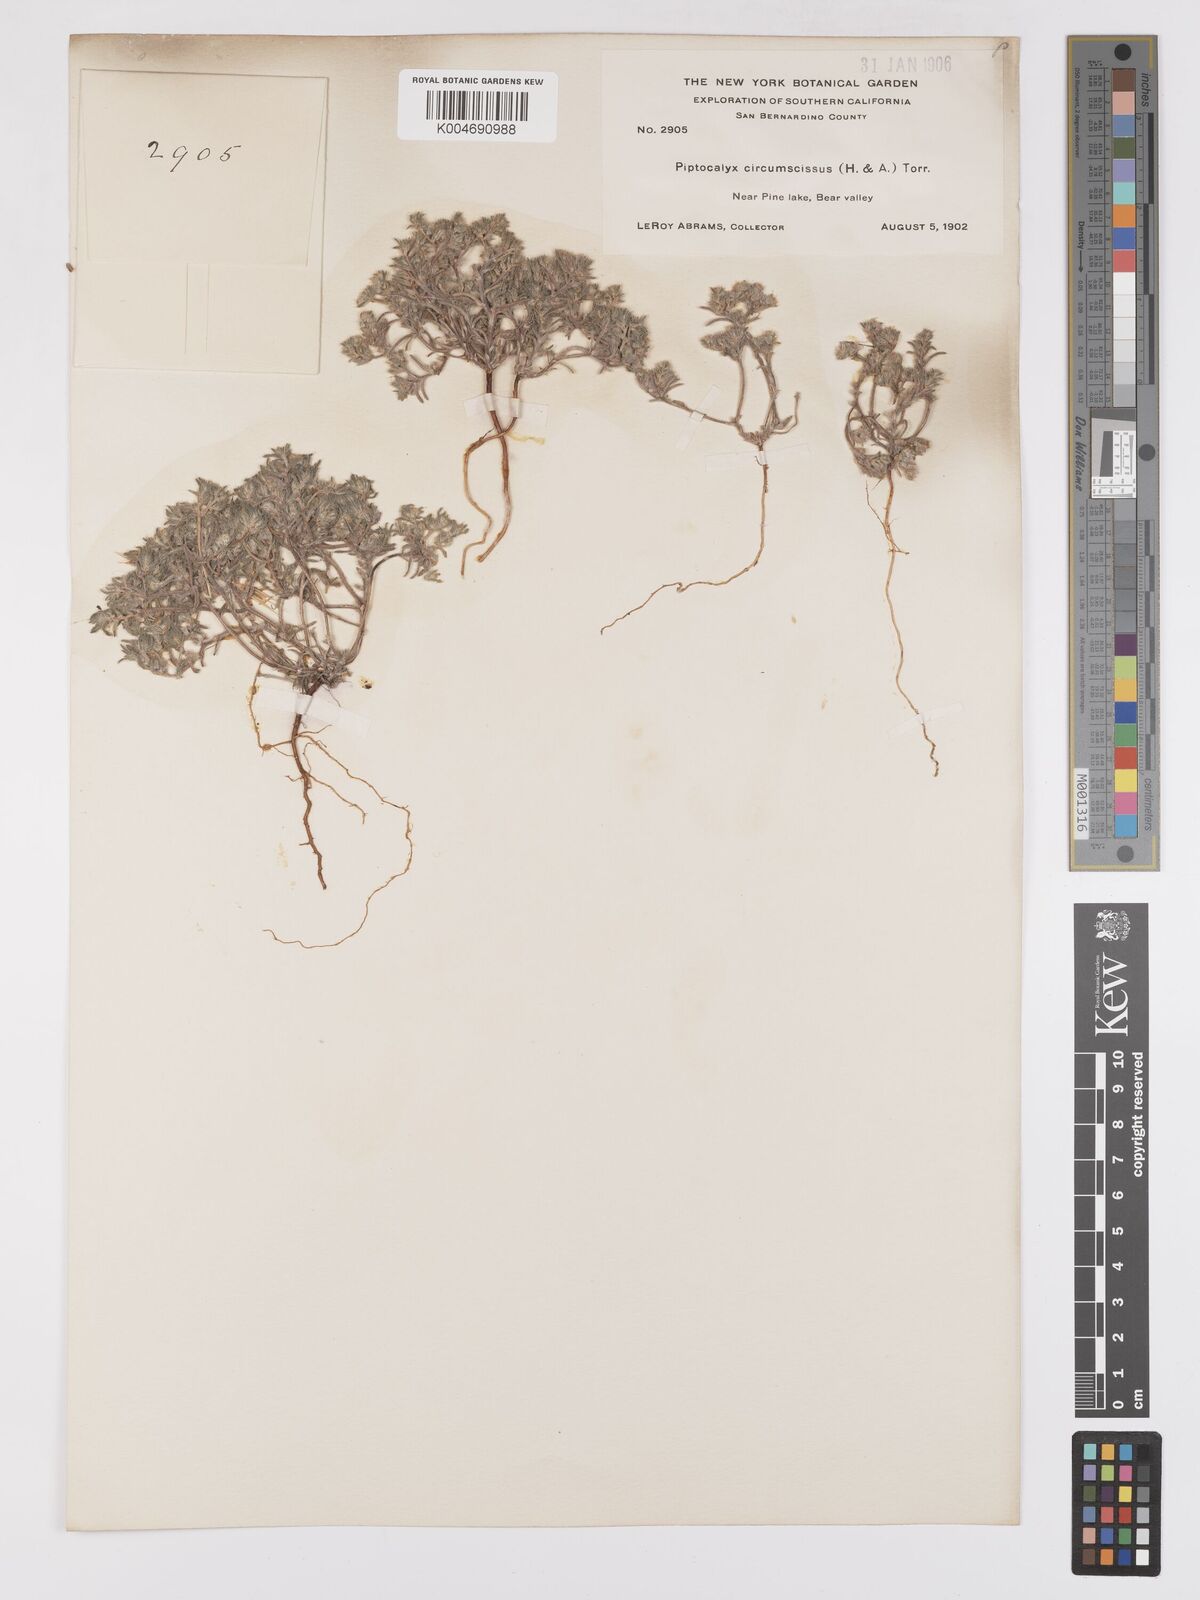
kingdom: Plantae
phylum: Tracheophyta
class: Magnoliopsida
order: Boraginales
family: Boraginaceae
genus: Greeneocharis
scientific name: Greeneocharis circumscissa
